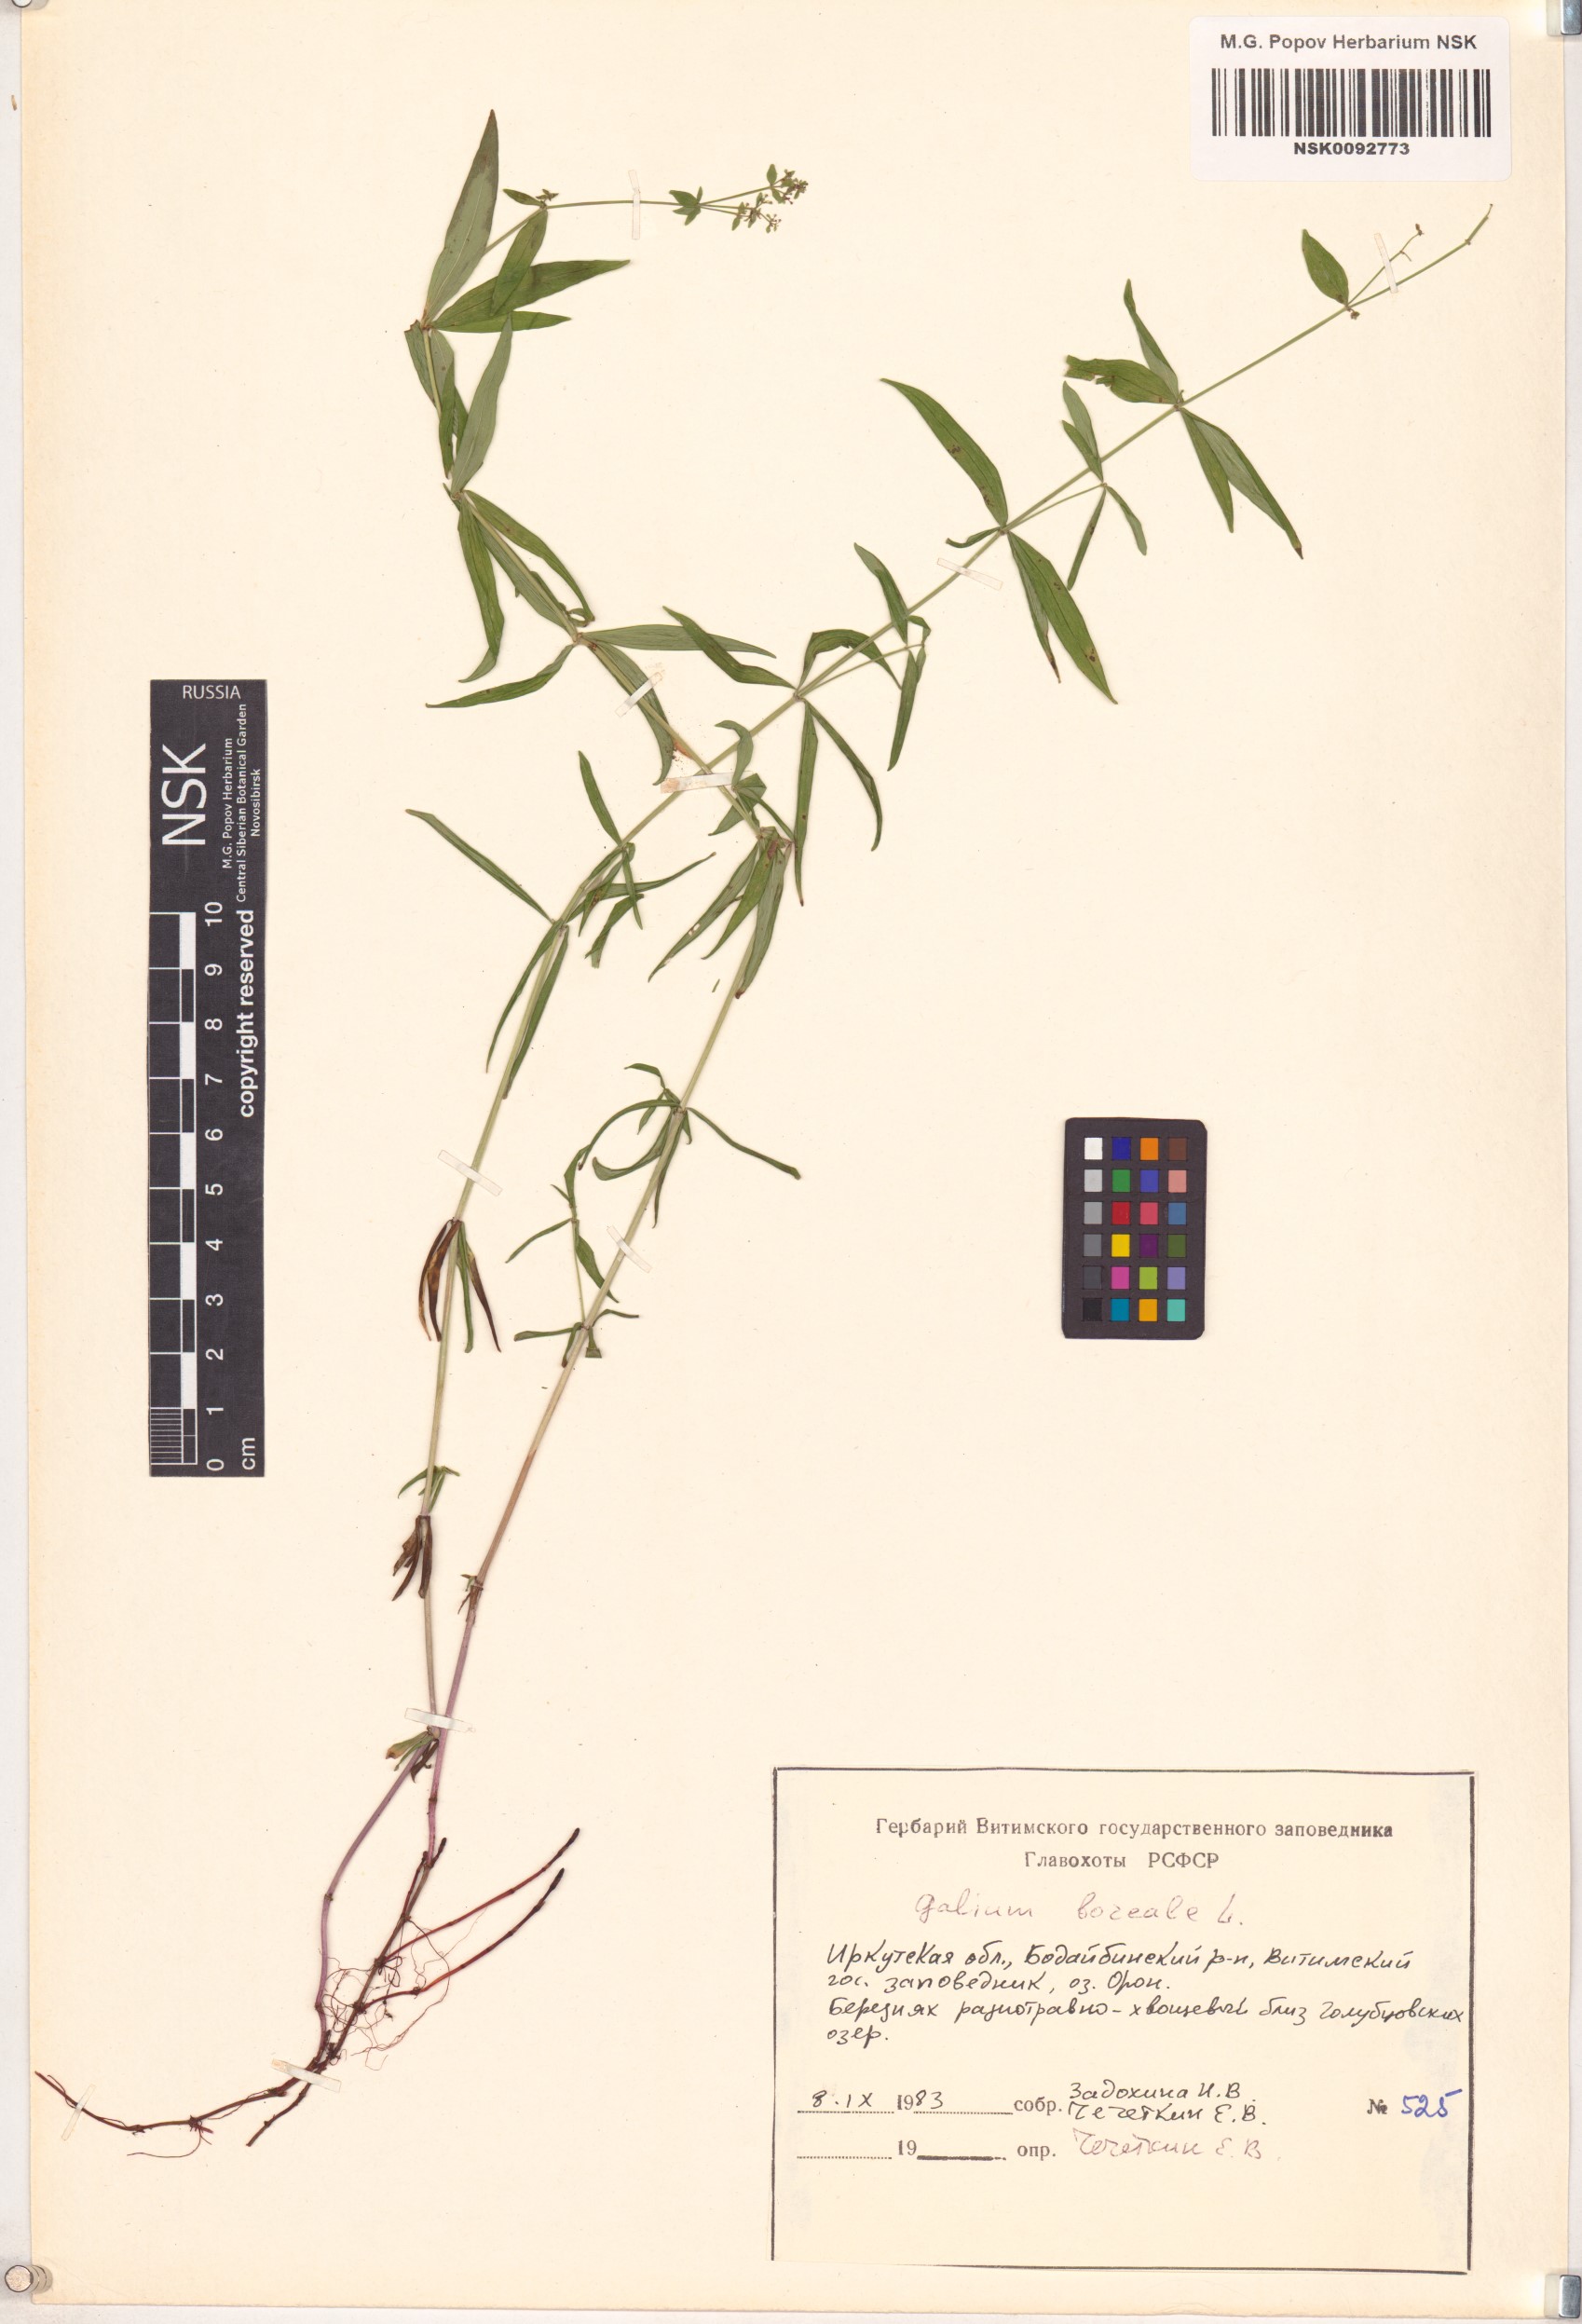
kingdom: Plantae
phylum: Tracheophyta
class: Magnoliopsida
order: Gentianales
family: Rubiaceae
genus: Galium
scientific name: Galium boreale
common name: Northern bedstraw
